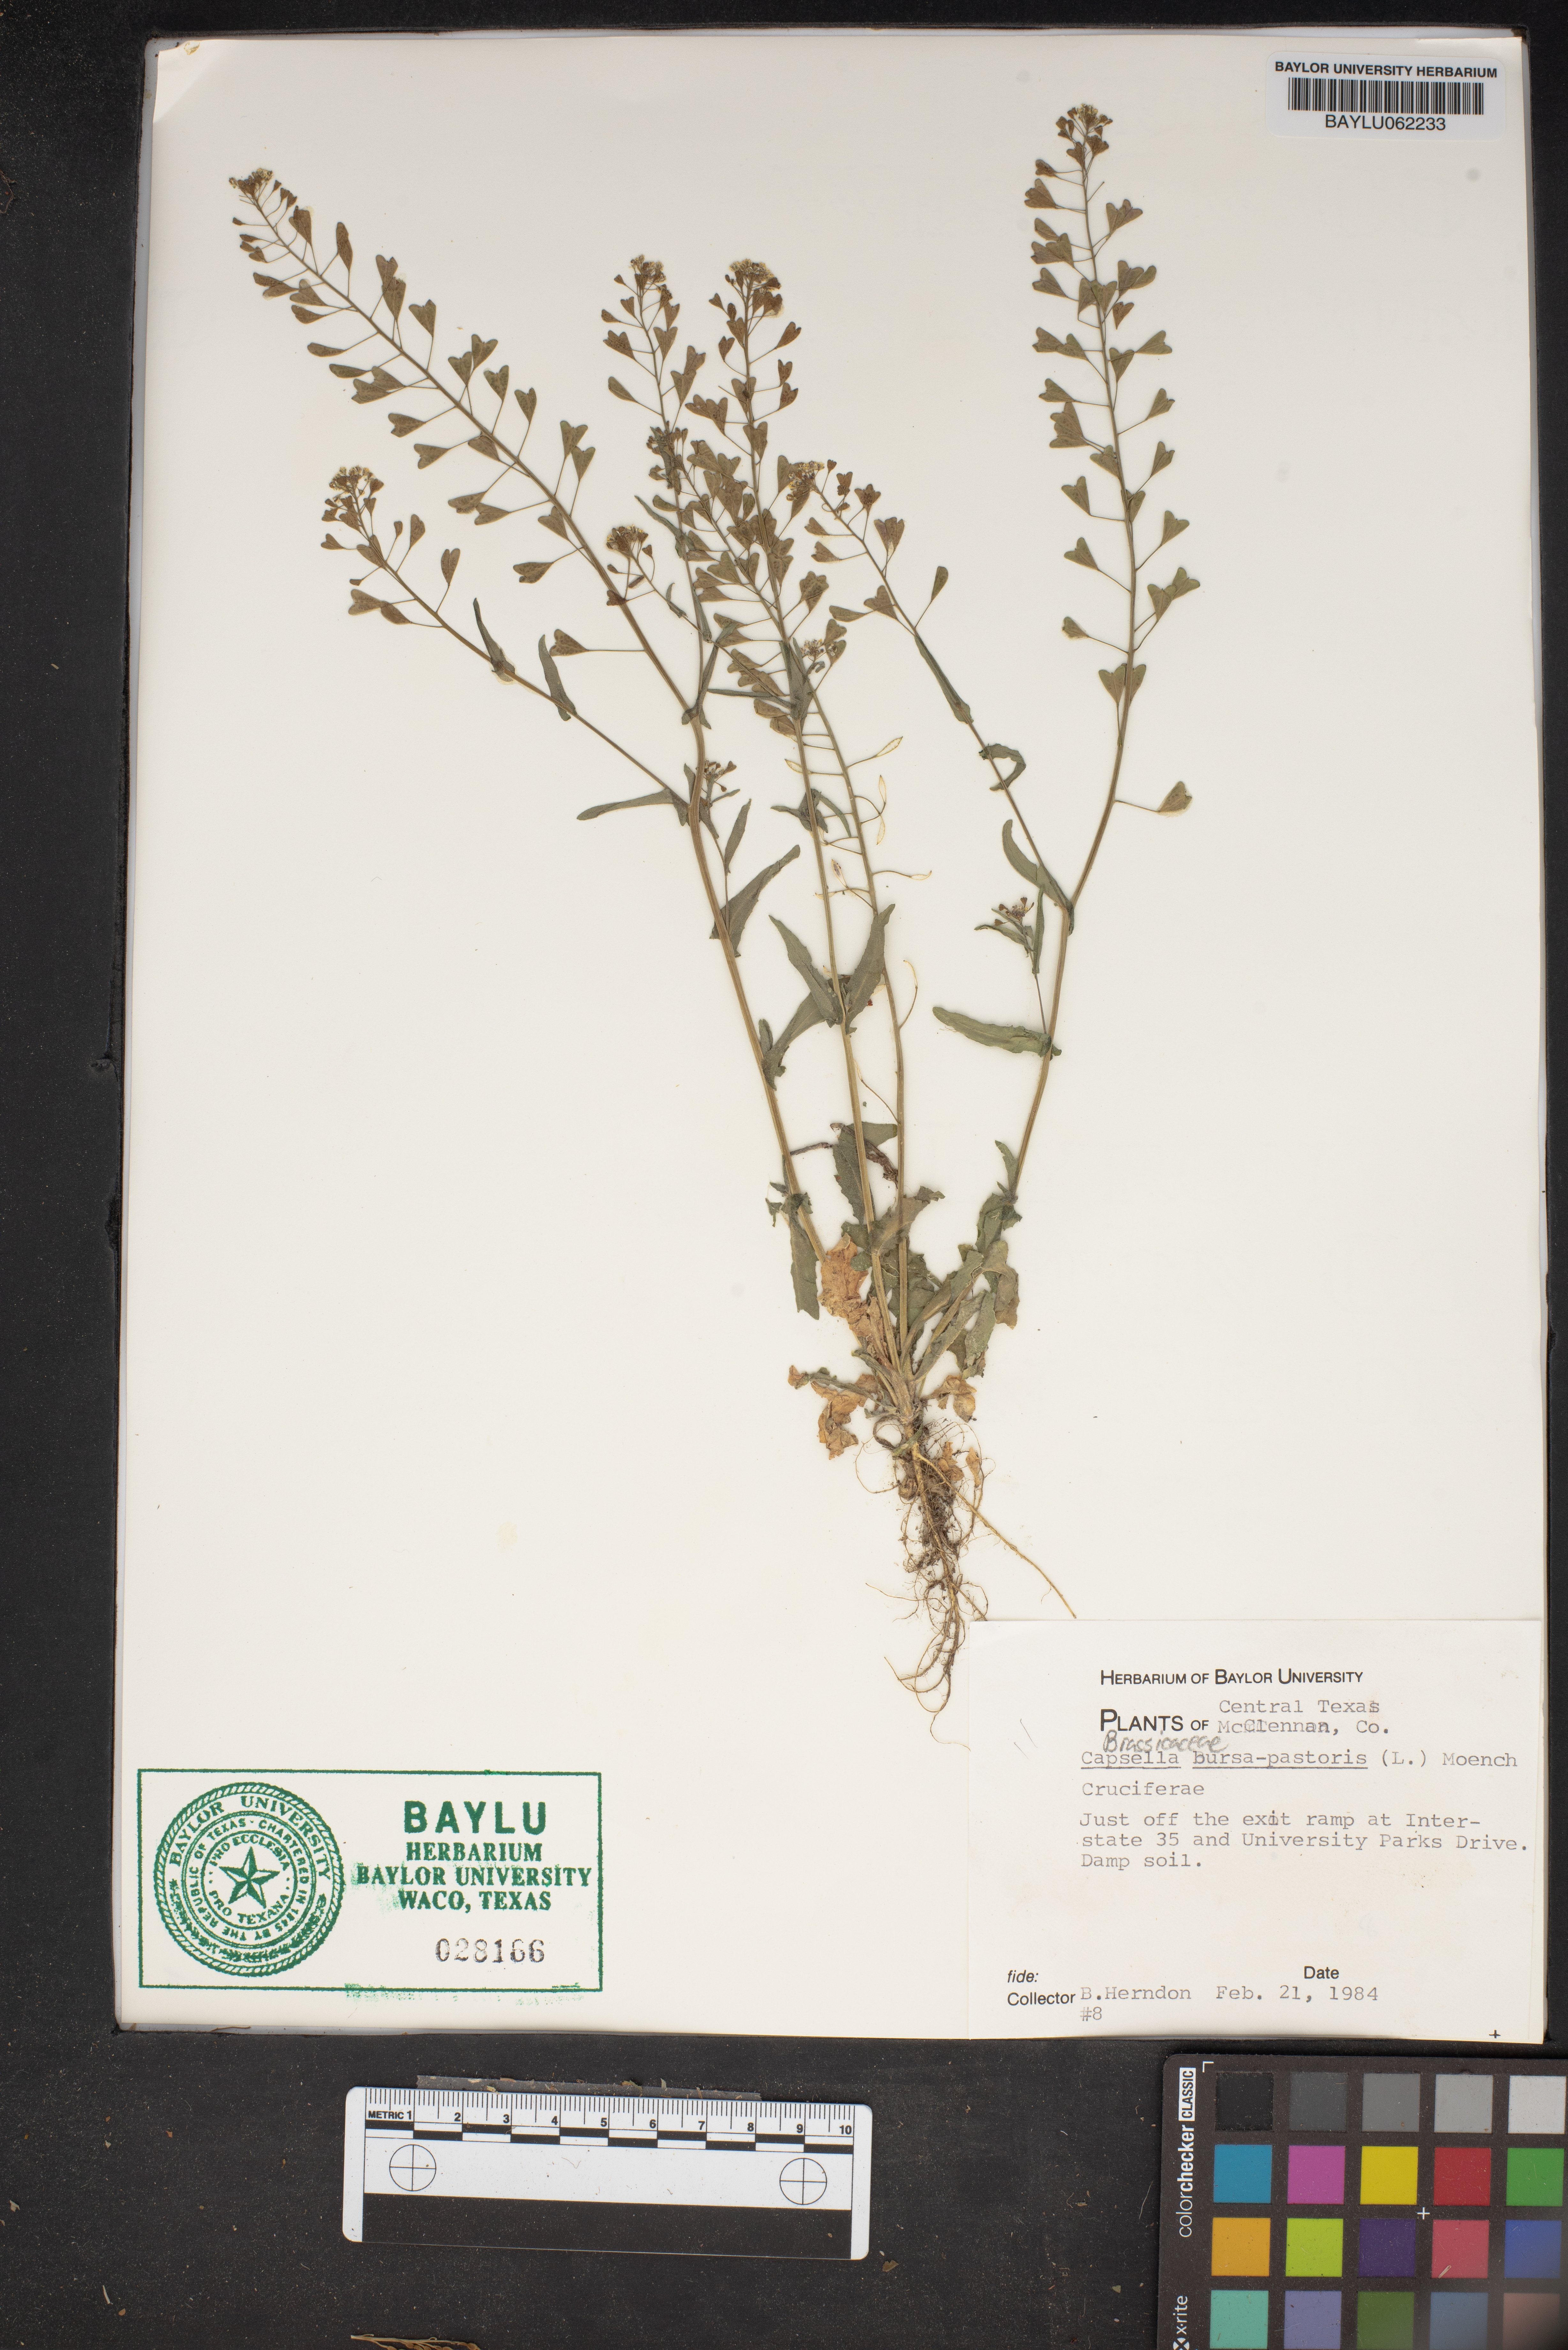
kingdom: Plantae
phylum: Tracheophyta
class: Magnoliopsida
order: Brassicales
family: Brassicaceae
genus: Capsella
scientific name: Capsella bursa-pastoris
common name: Shepherd's purse
